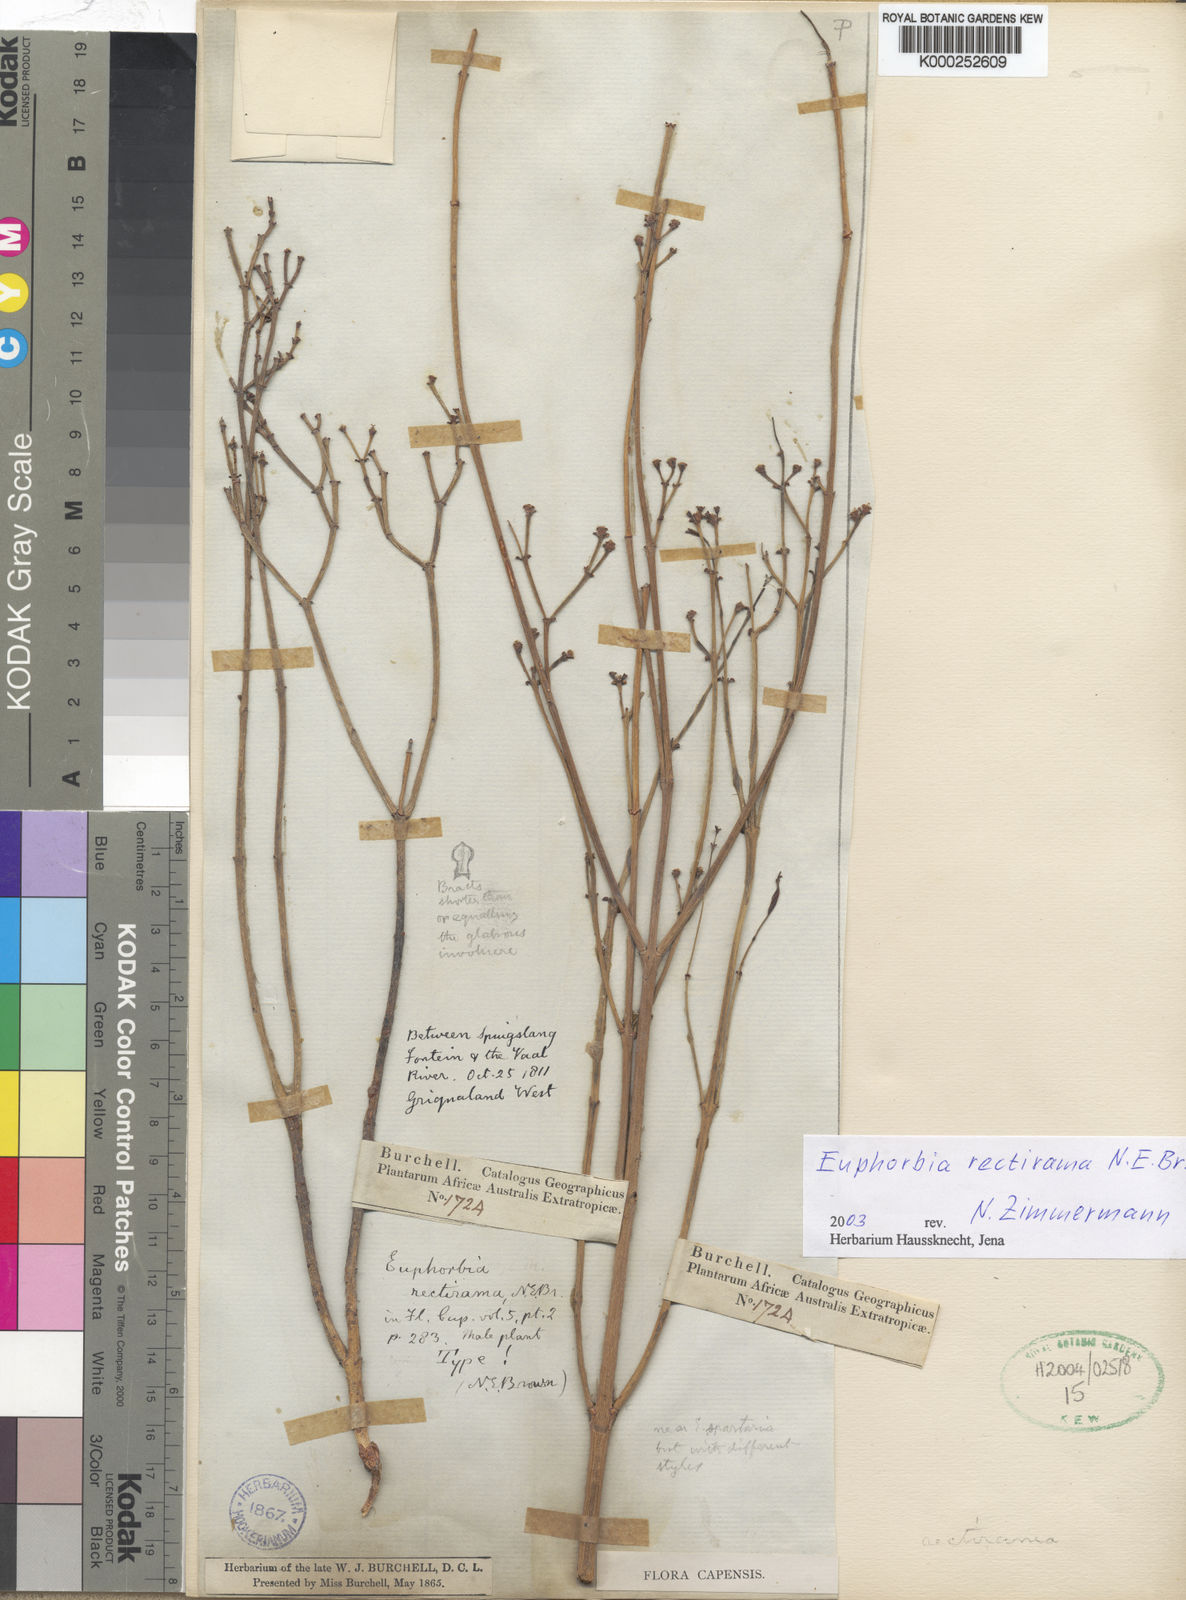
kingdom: Plantae
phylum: Tracheophyta
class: Magnoliopsida
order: Malpighiales
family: Euphorbiaceae
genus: Euphorbia
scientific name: Euphorbia racemosa
